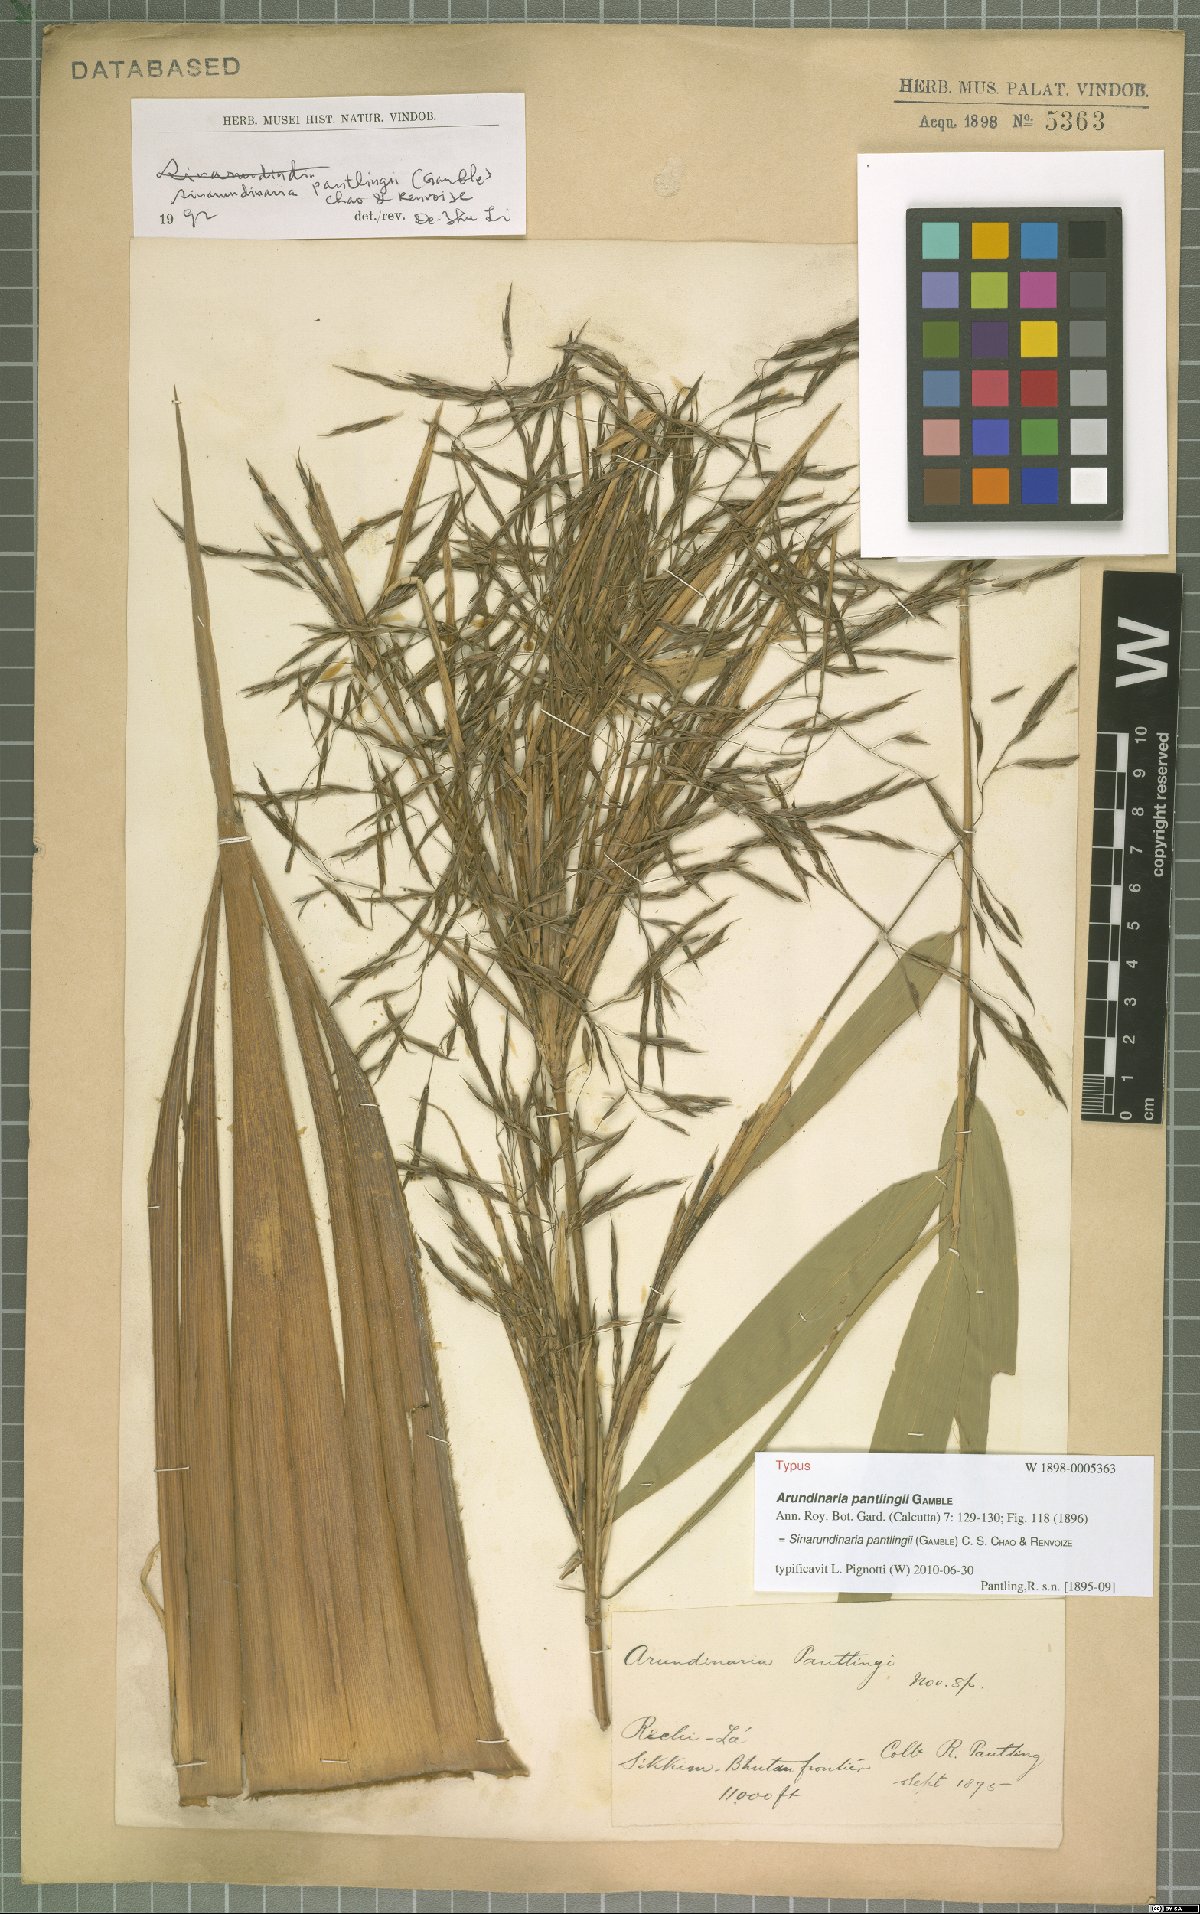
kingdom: Plantae
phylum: Tracheophyta
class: Liliopsida
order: Poales
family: Poaceae
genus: Yushania
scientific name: Yushania pantlingii
